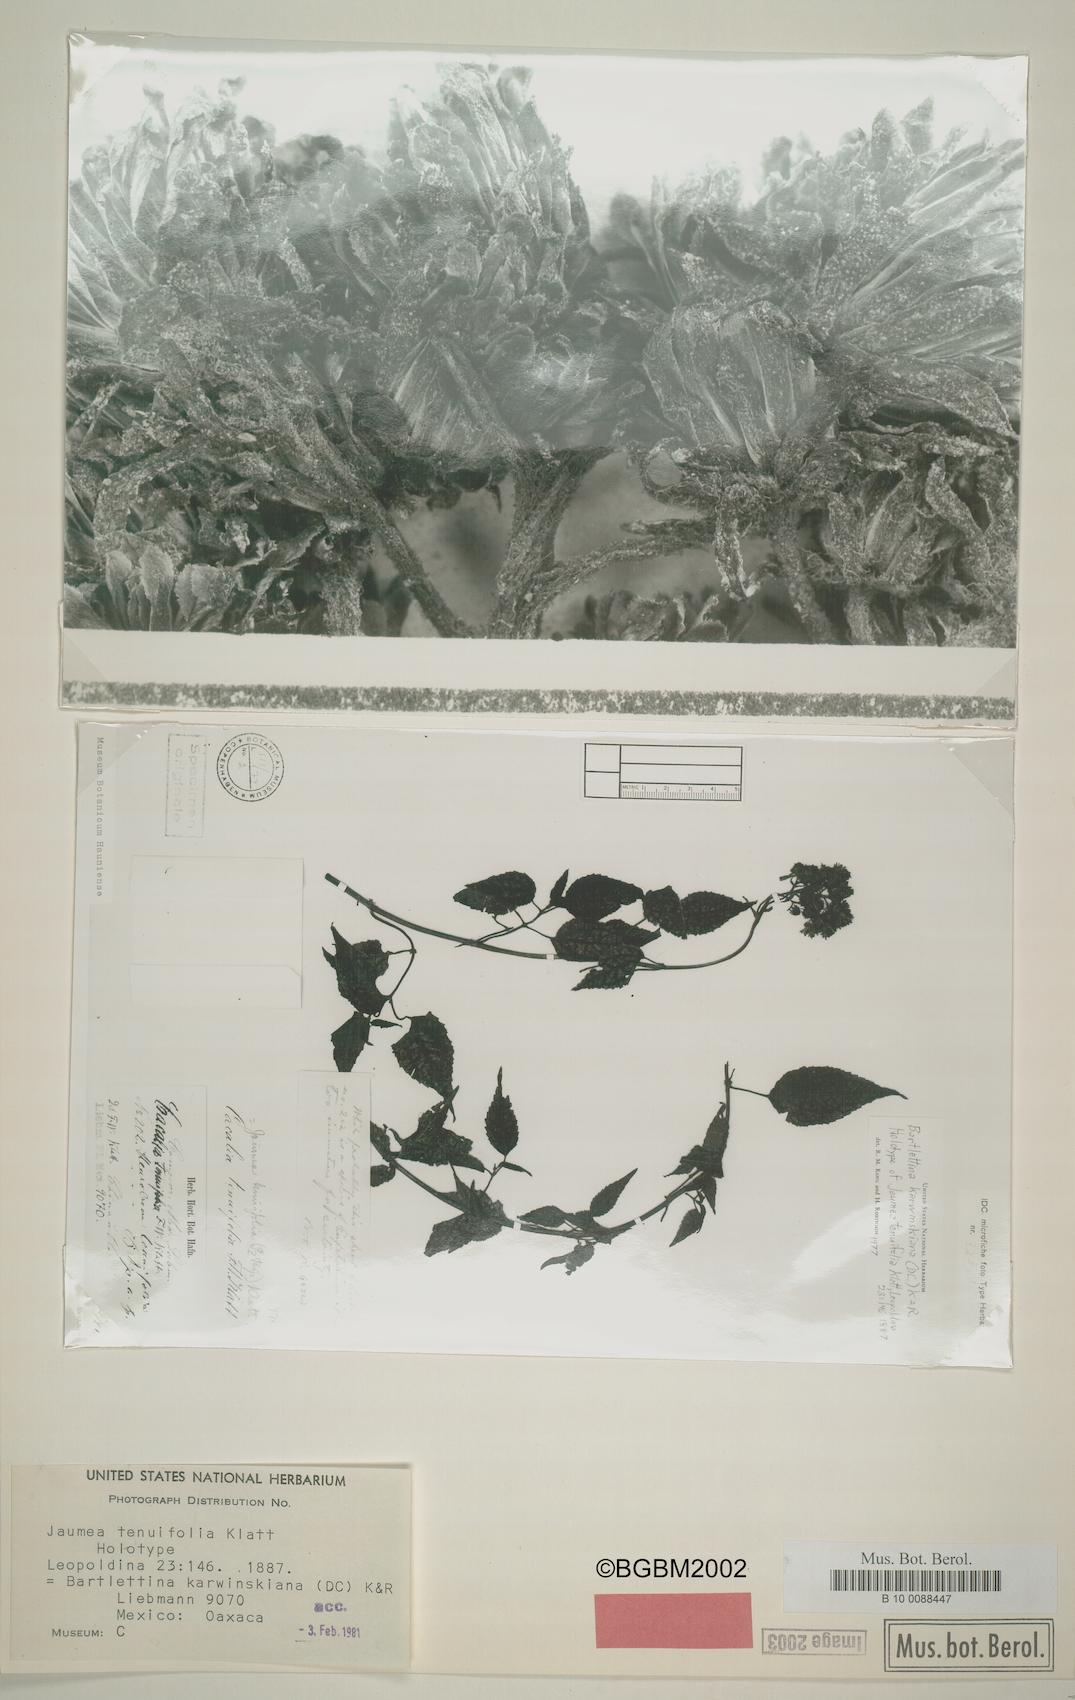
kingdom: Plantae
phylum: Tracheophyta
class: Magnoliopsida
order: Asterales
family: Asteraceae
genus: Bartlettina
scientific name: Bartlettina karwinskiana
